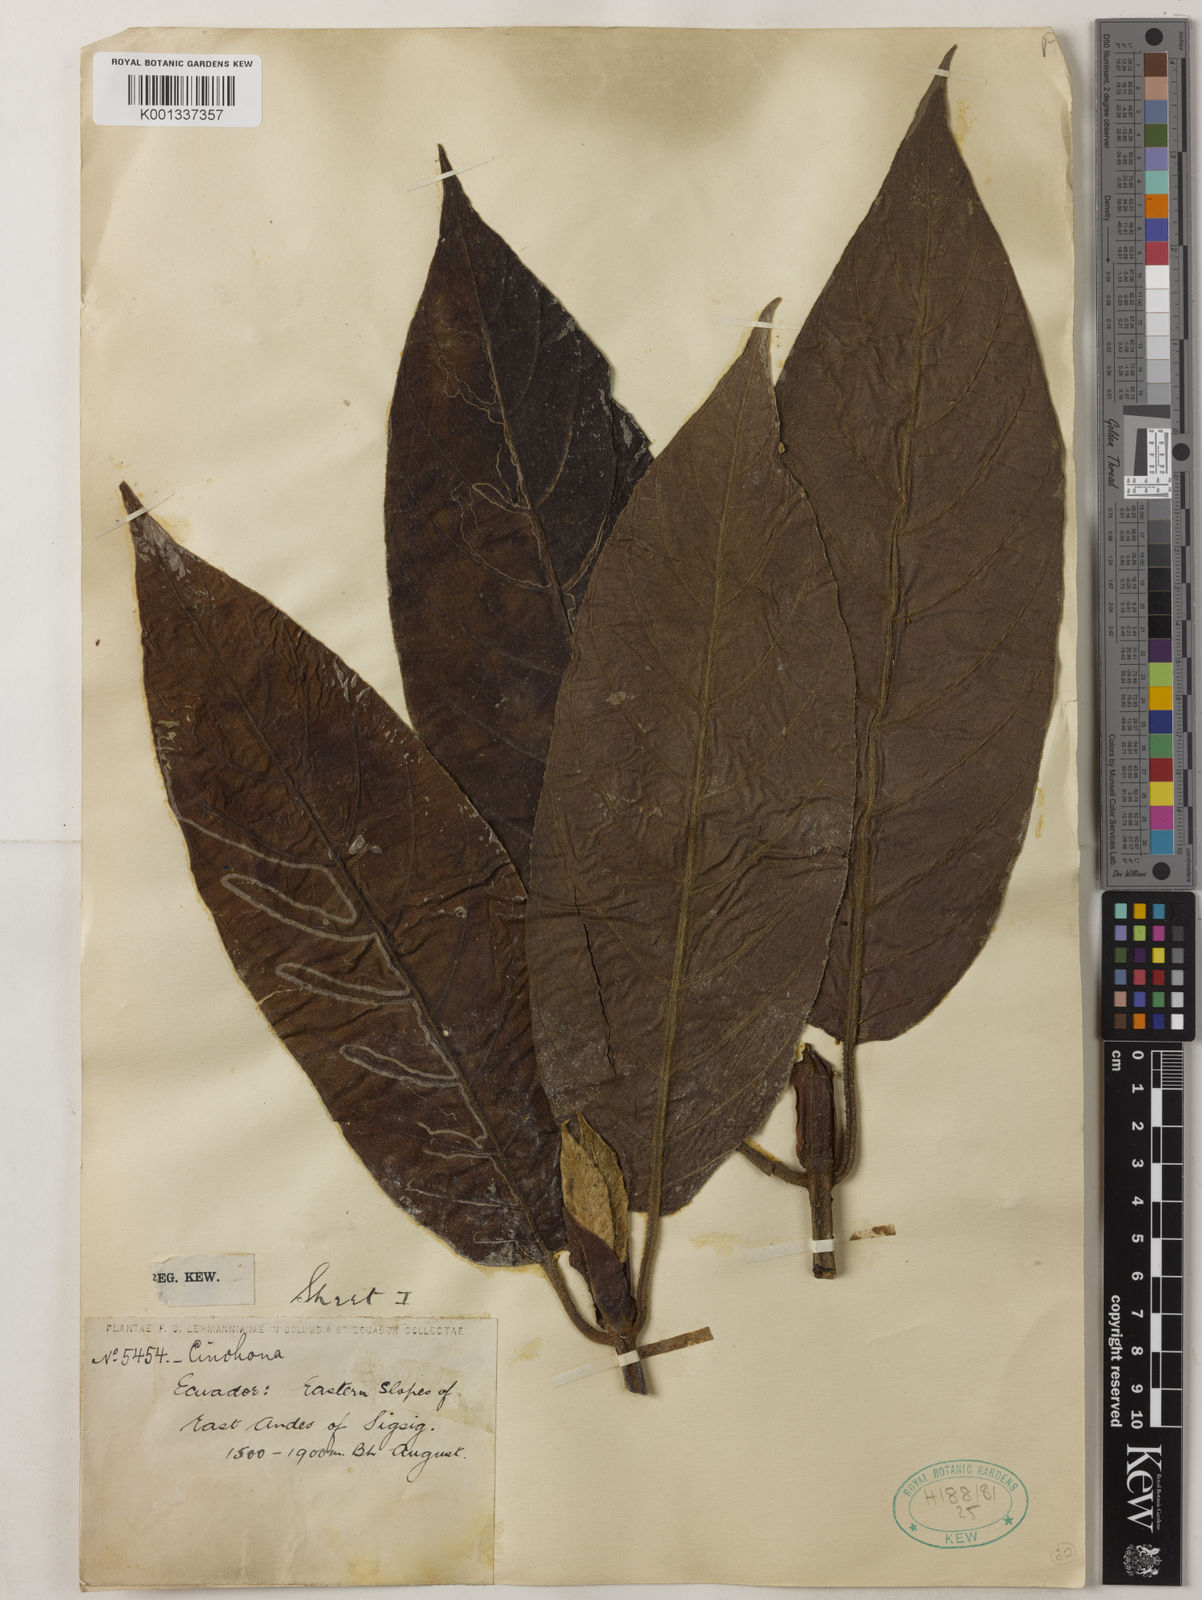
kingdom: Plantae
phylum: Tracheophyta
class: Magnoliopsida
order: Gentianales
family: Rubiaceae
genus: Cinchona
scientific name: Cinchona
